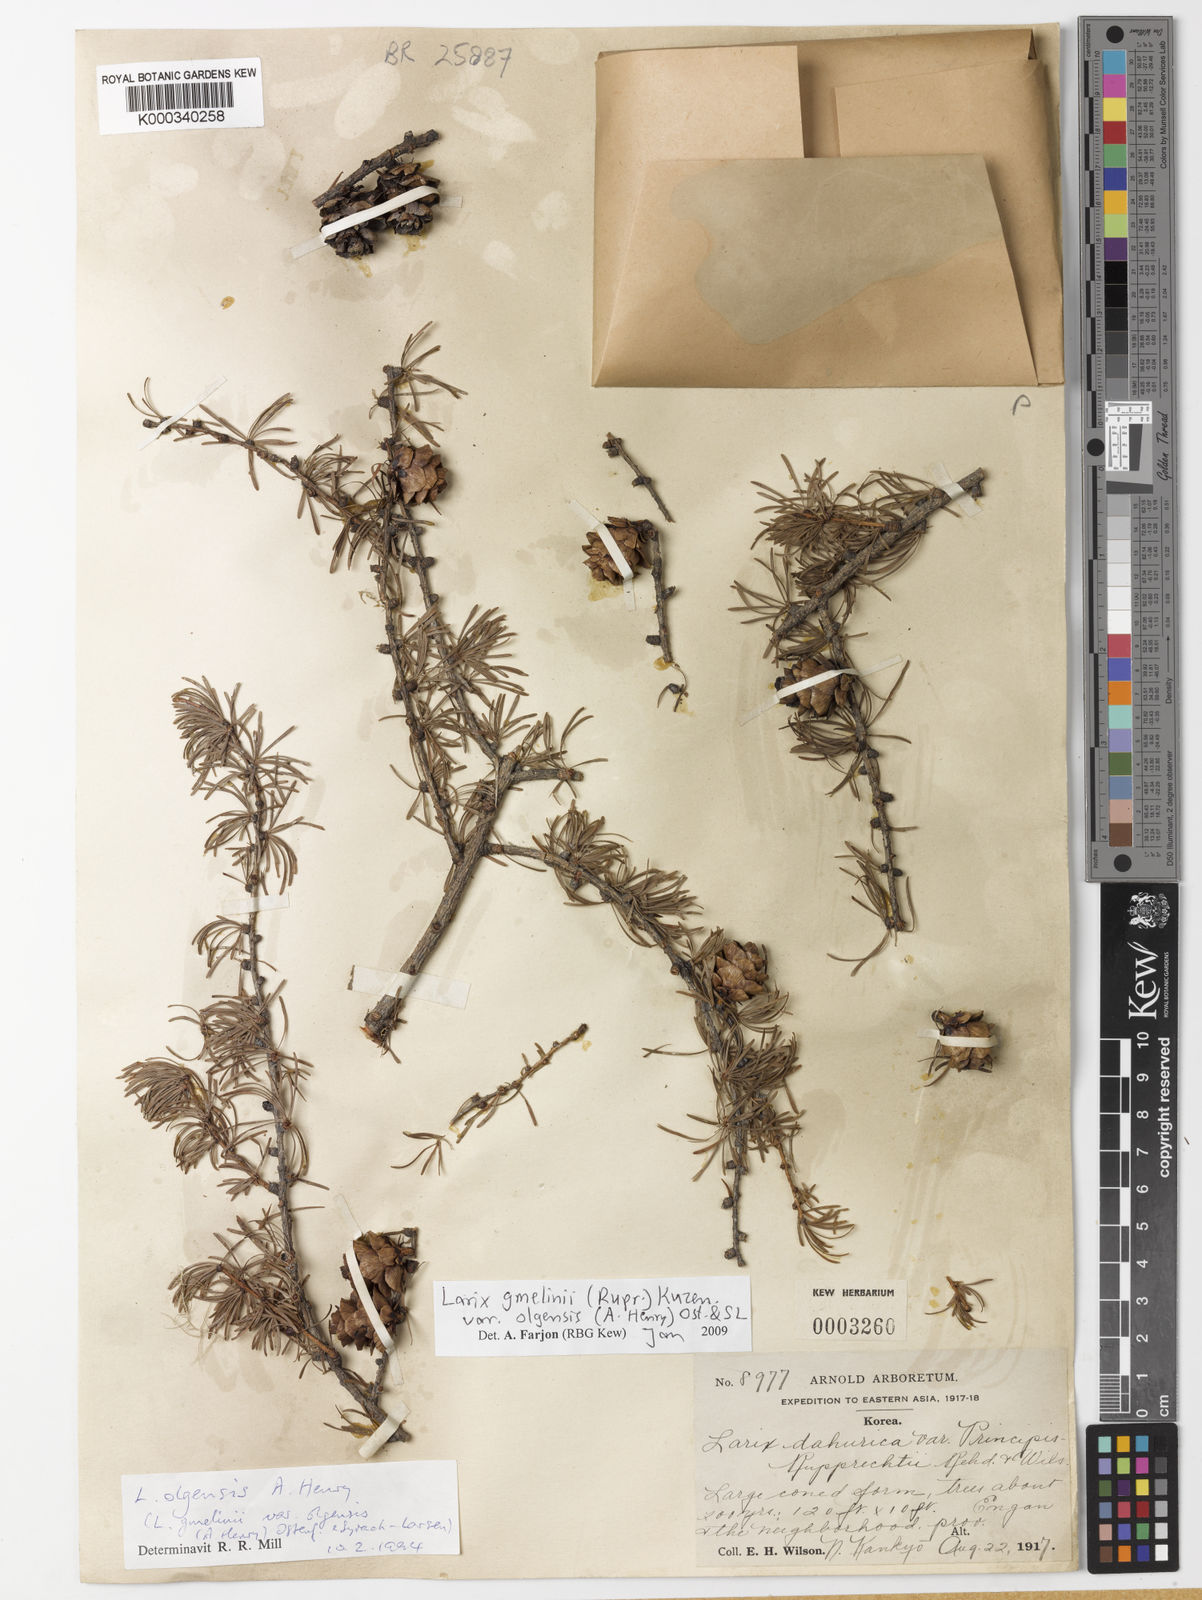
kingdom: Plantae
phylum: Tracheophyta
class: Pinopsida
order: Pinales
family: Pinaceae
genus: Larix
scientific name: Larix gmelinii
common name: Dahurian larch
